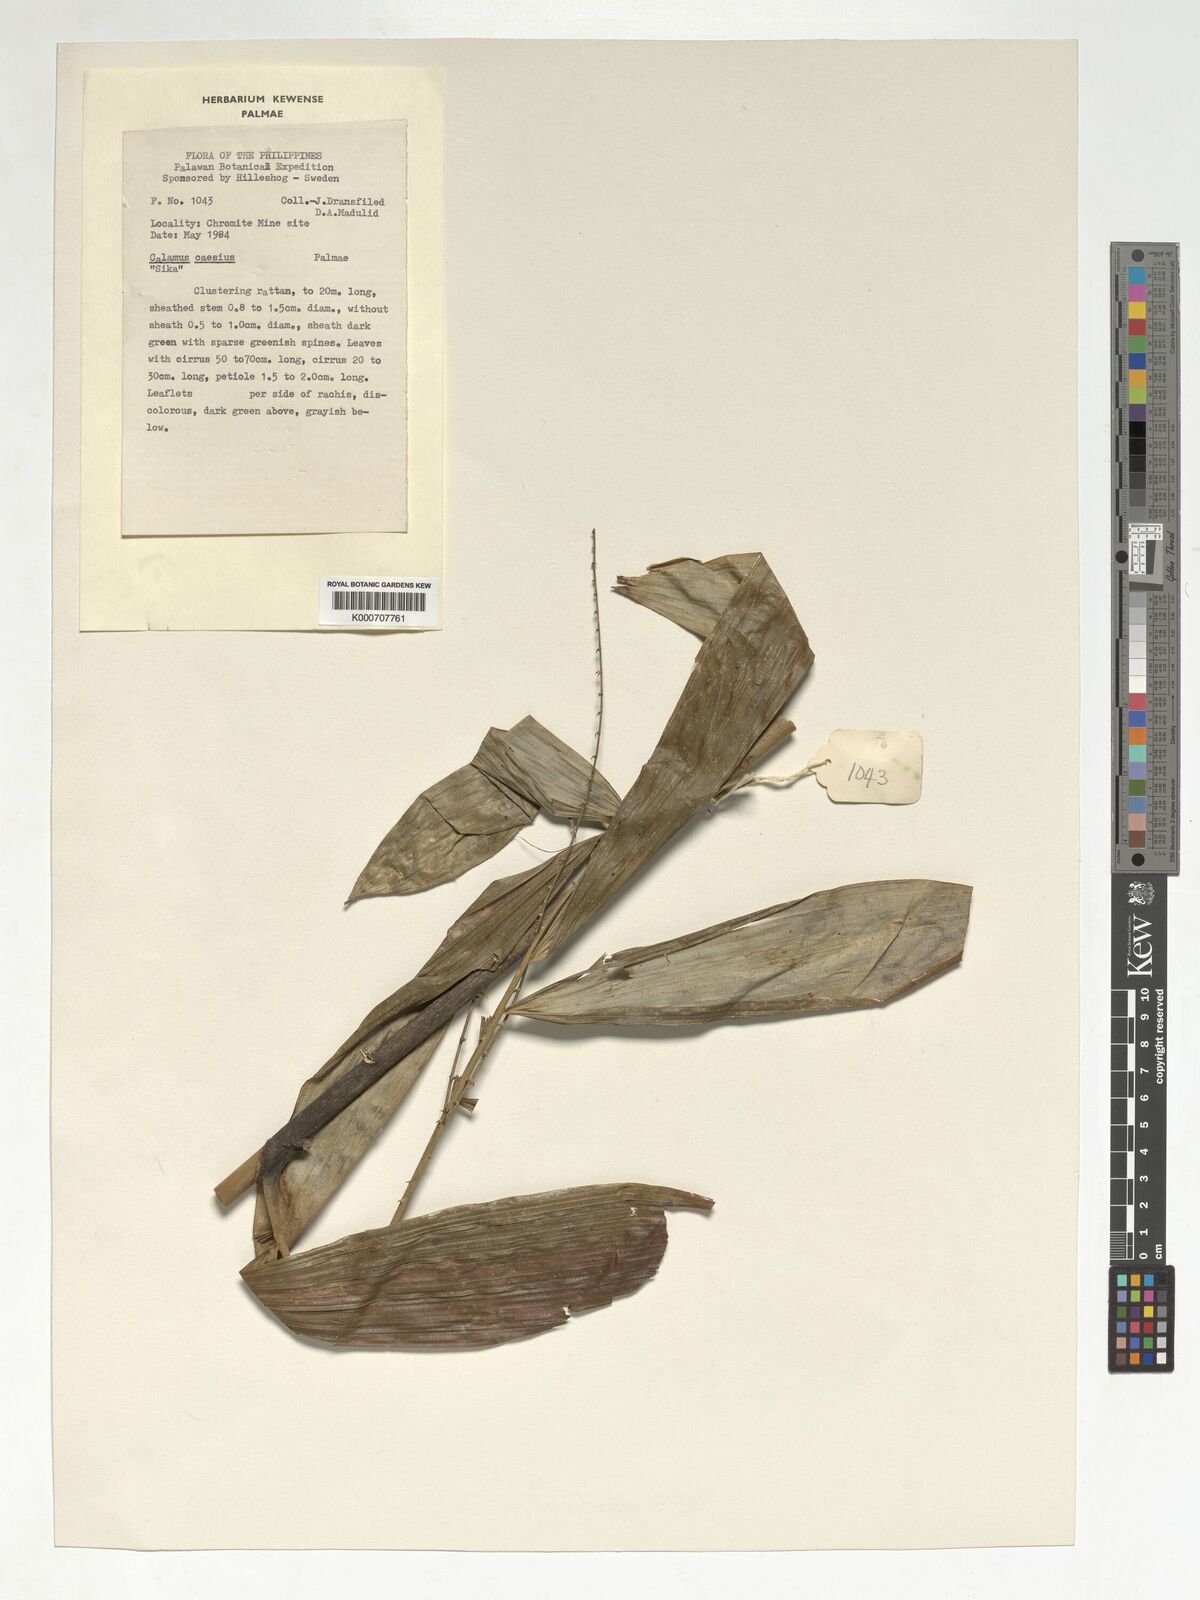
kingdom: Plantae
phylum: Tracheophyta
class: Liliopsida
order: Arecales
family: Arecaceae
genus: Calamus
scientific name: Calamus caesius
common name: Rattan palm
